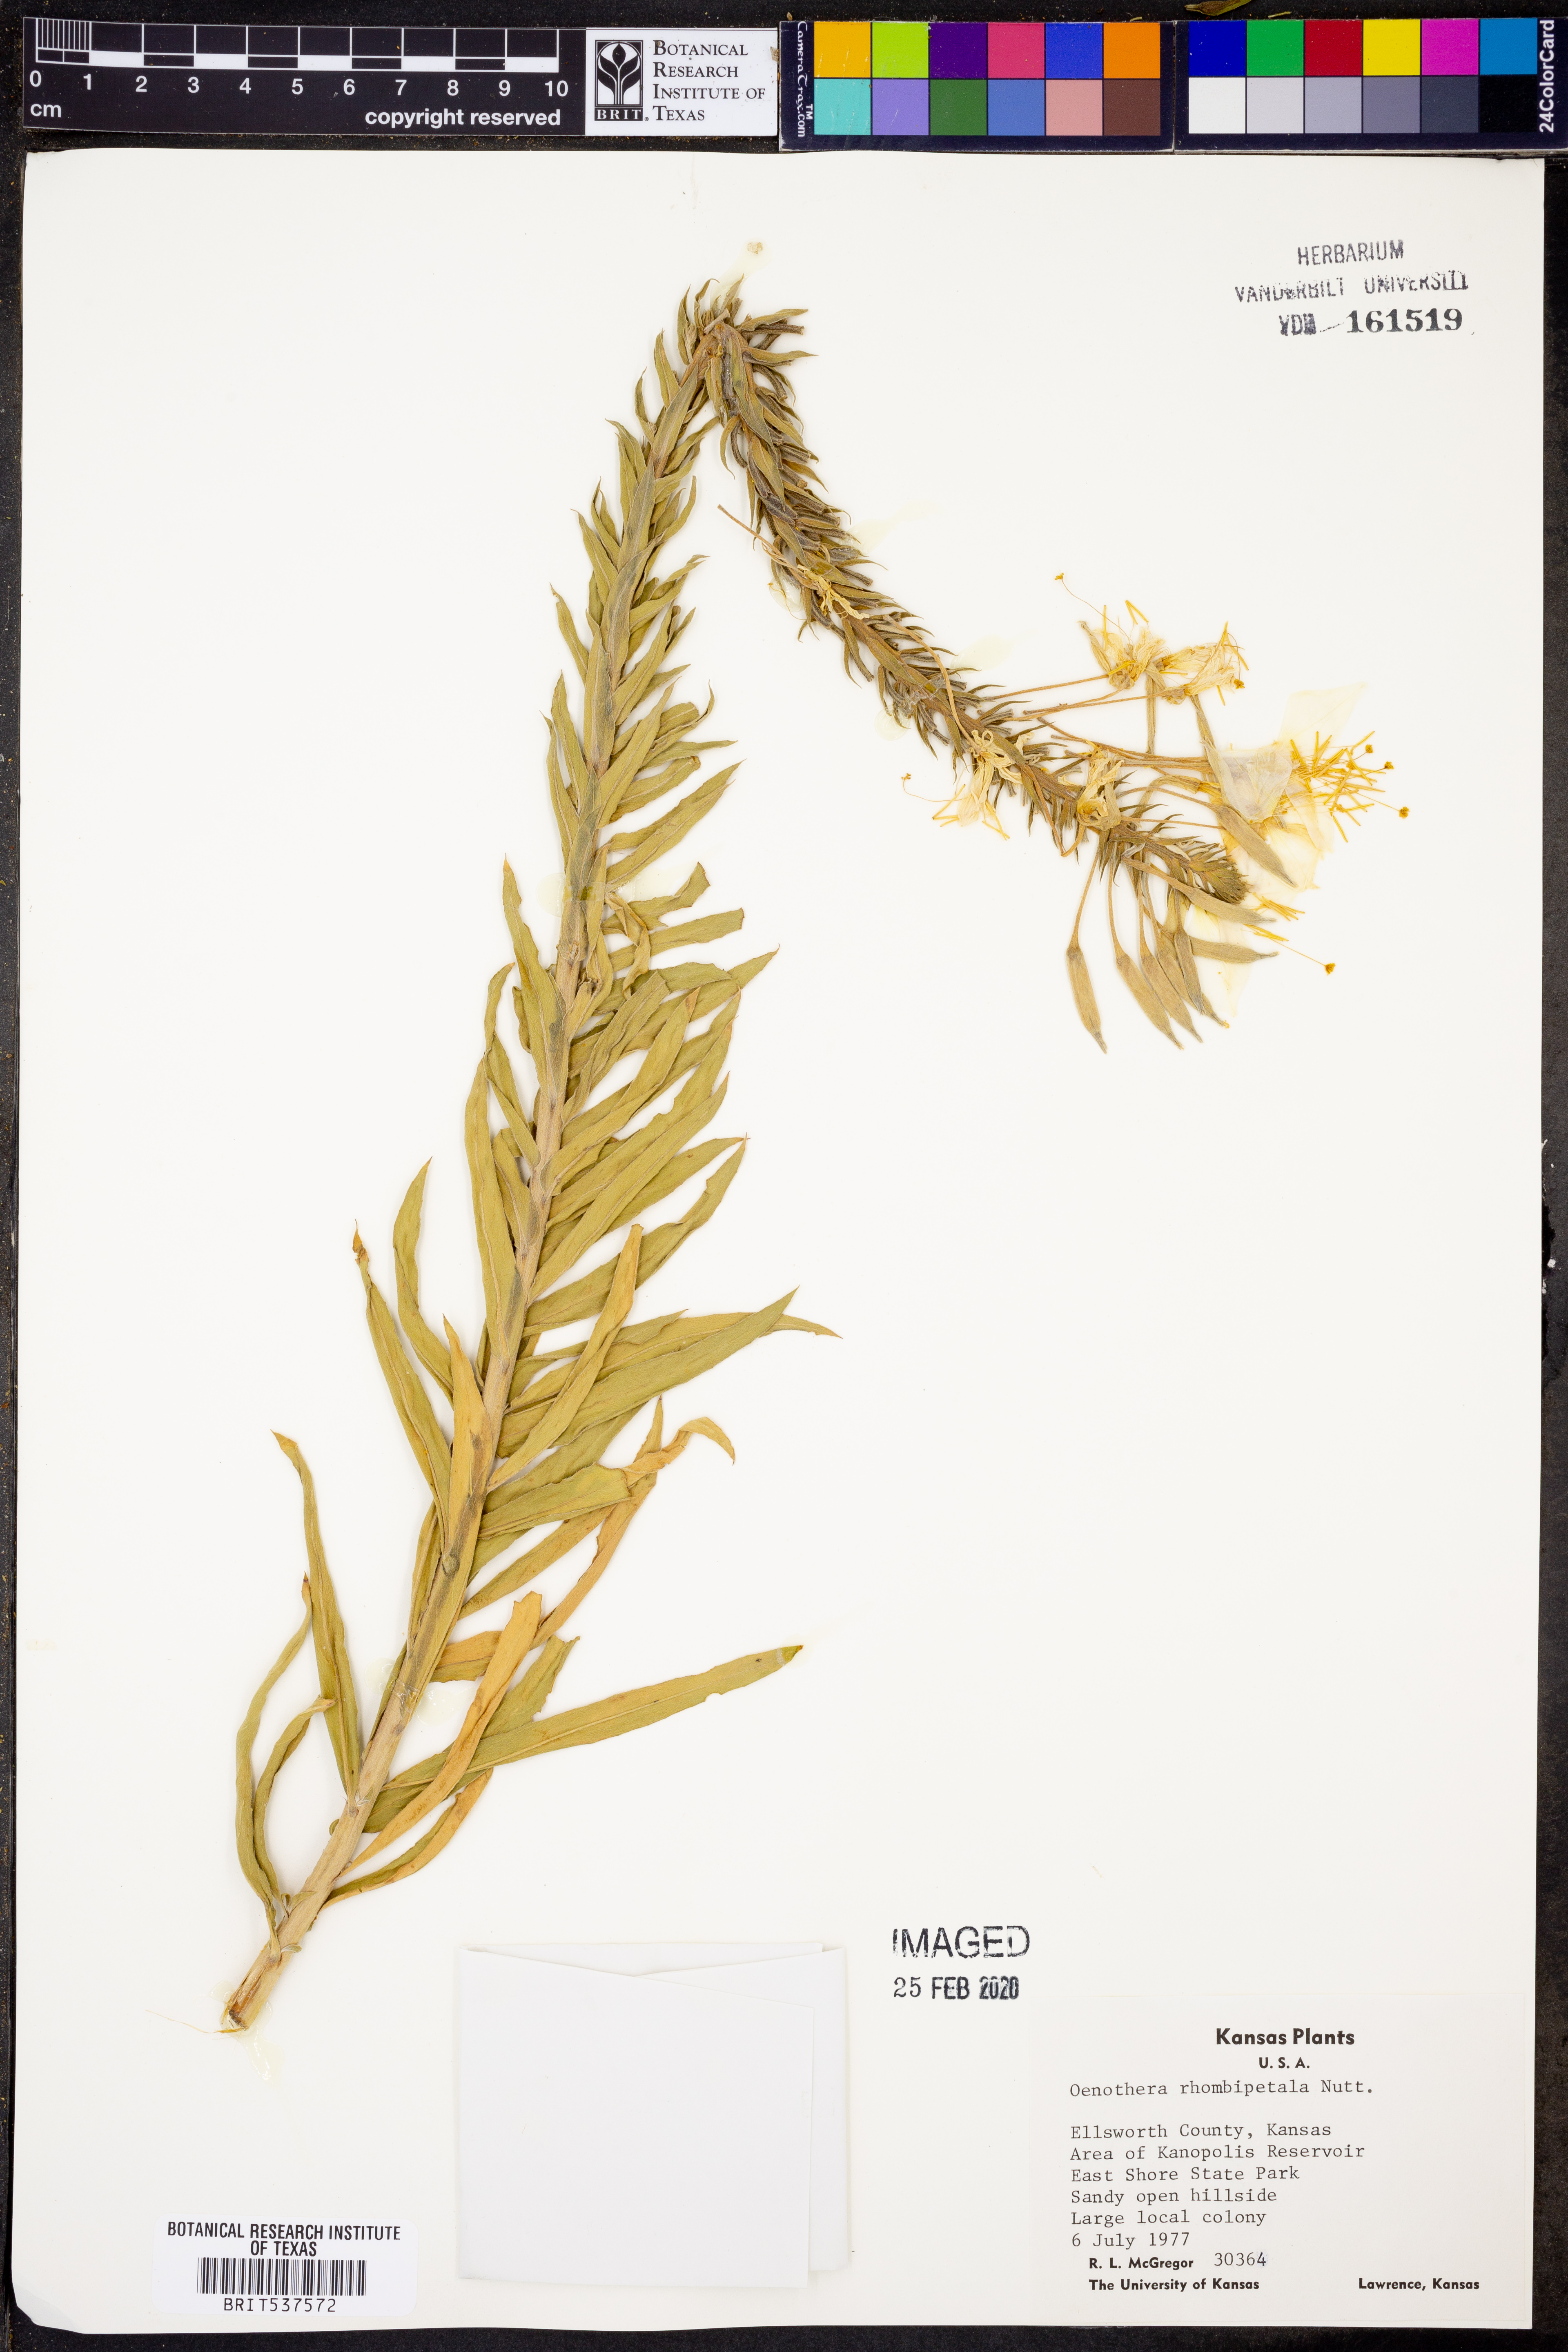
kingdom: Plantae
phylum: Tracheophyta
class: Magnoliopsida
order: Myrtales
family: Onagraceae
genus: Oenothera
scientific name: Oenothera rhombipetala
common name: Four-points evening-primrose
